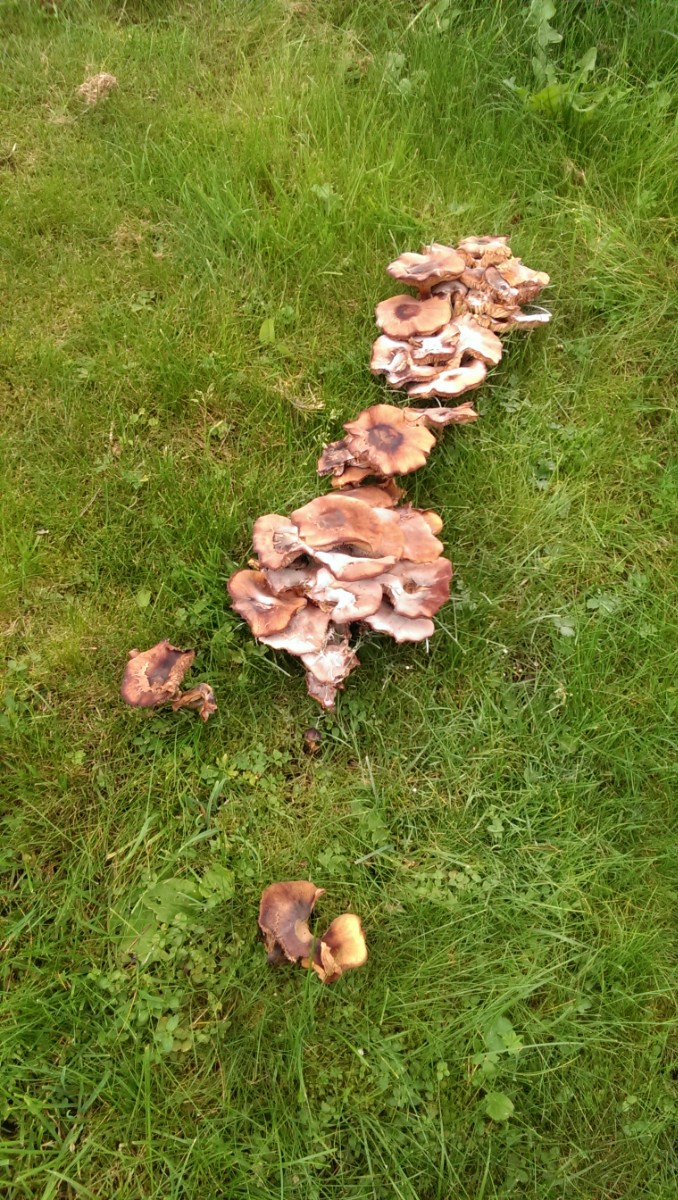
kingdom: Fungi
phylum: Basidiomycota
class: Agaricomycetes
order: Agaricales
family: Physalacriaceae
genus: Armillaria
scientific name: Armillaria
